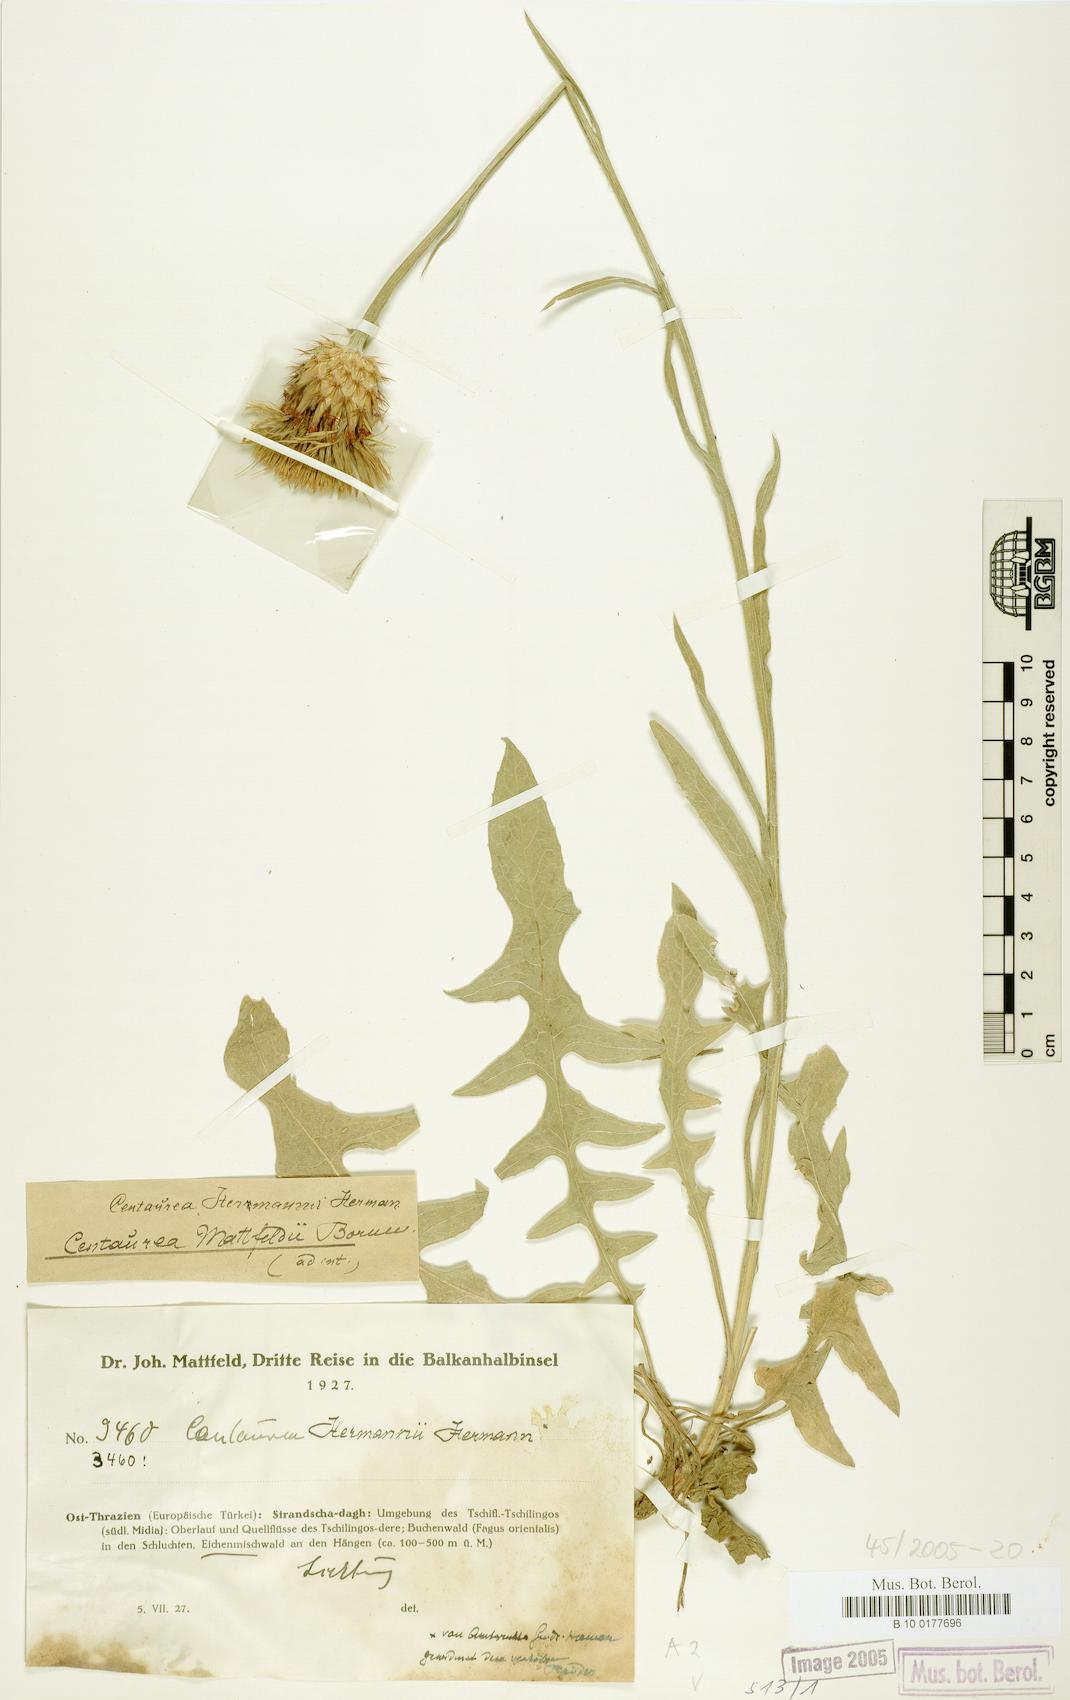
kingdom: Plantae
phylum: Tracheophyta
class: Magnoliopsida
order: Asterales
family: Asteraceae
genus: Centaurea
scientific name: Centaurea hermannii
